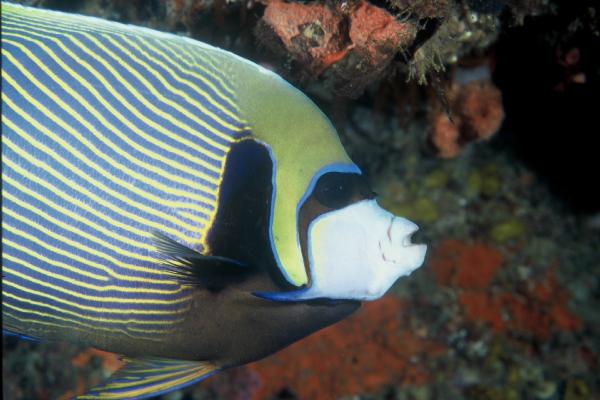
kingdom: Animalia
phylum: Chordata
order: Perciformes
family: Pomacanthidae
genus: Pomacanthus
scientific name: Pomacanthus imperator
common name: Emperor angelfish
